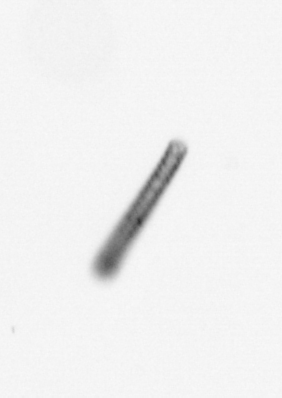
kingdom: Chromista
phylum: Ochrophyta
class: Bacillariophyceae
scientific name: Bacillariophyceae
